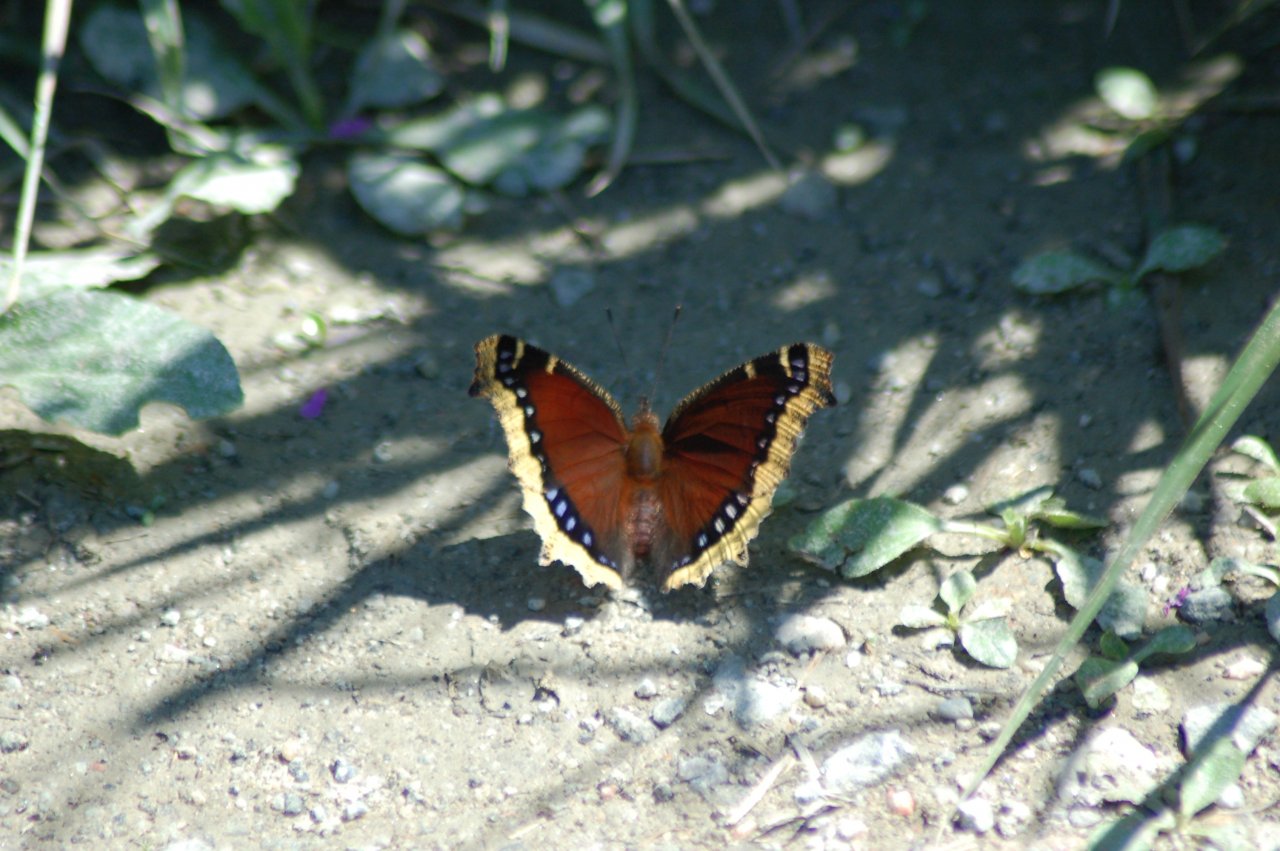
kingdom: Animalia
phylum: Arthropoda
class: Insecta
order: Lepidoptera
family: Nymphalidae
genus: Nymphalis
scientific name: Nymphalis antiopa
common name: Mourning Cloak
